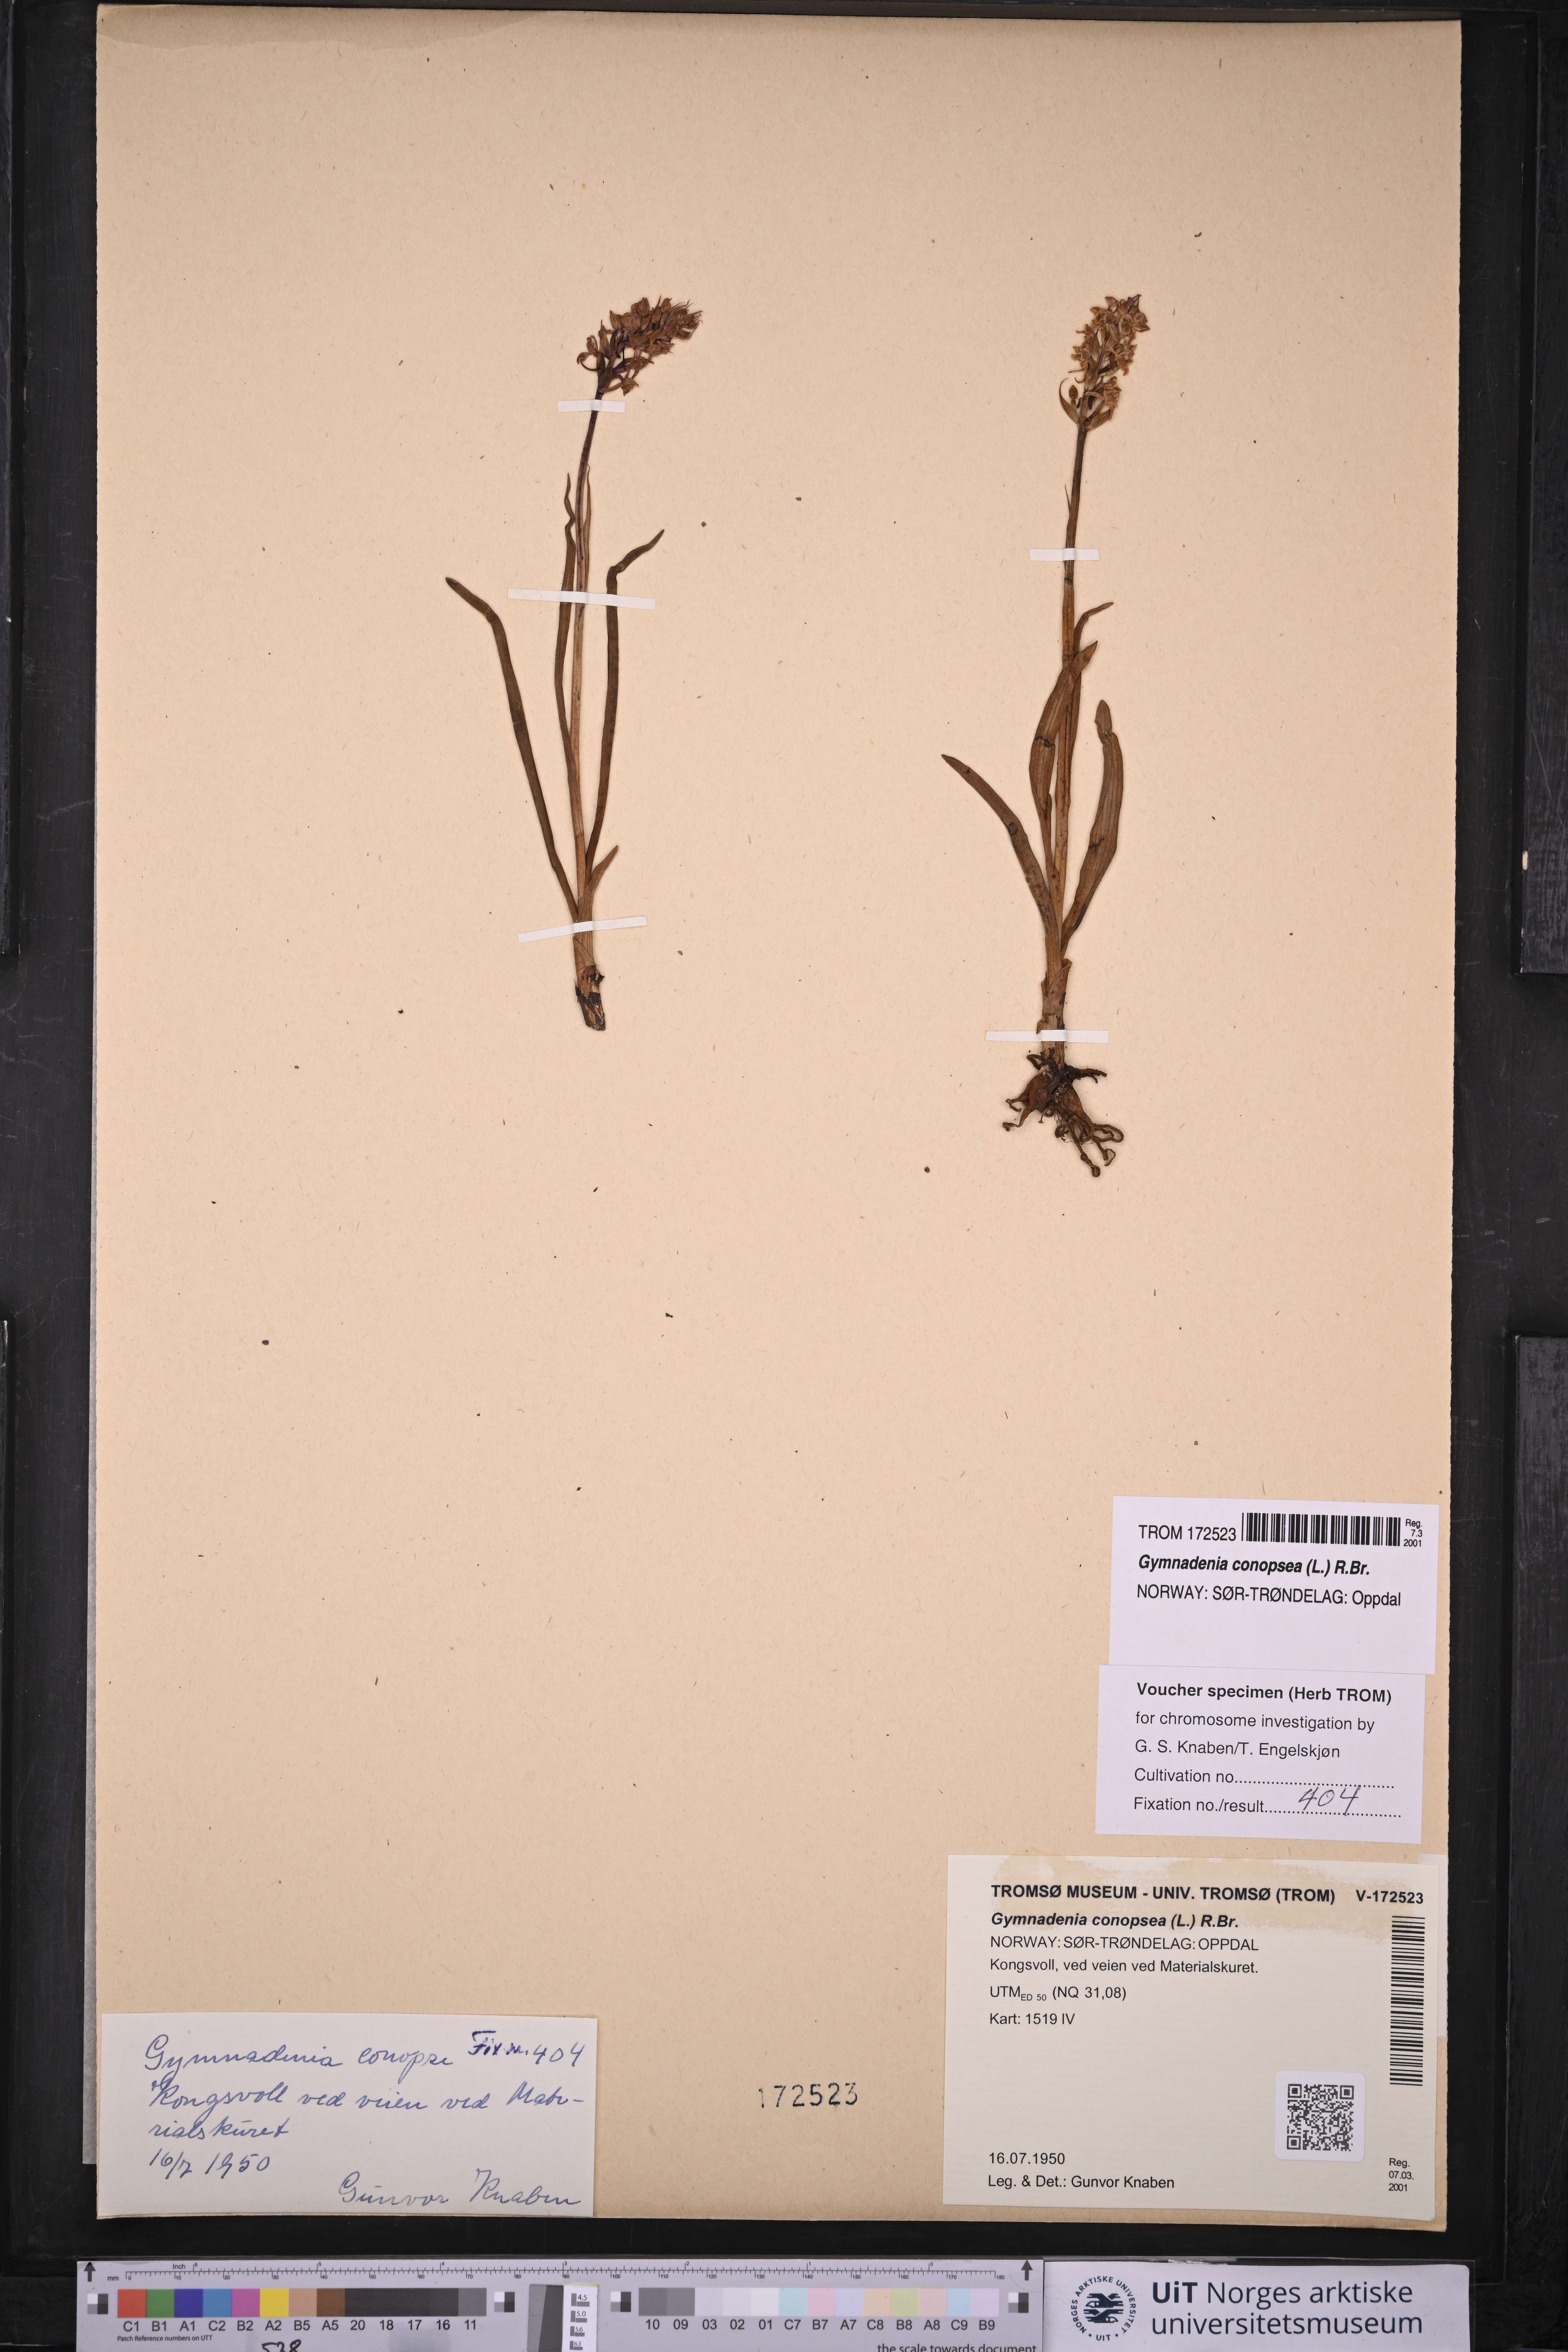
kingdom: Plantae
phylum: Tracheophyta
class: Liliopsida
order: Asparagales
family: Orchidaceae
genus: Gymnadenia
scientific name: Gymnadenia conopsea
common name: Fragrant orchid
